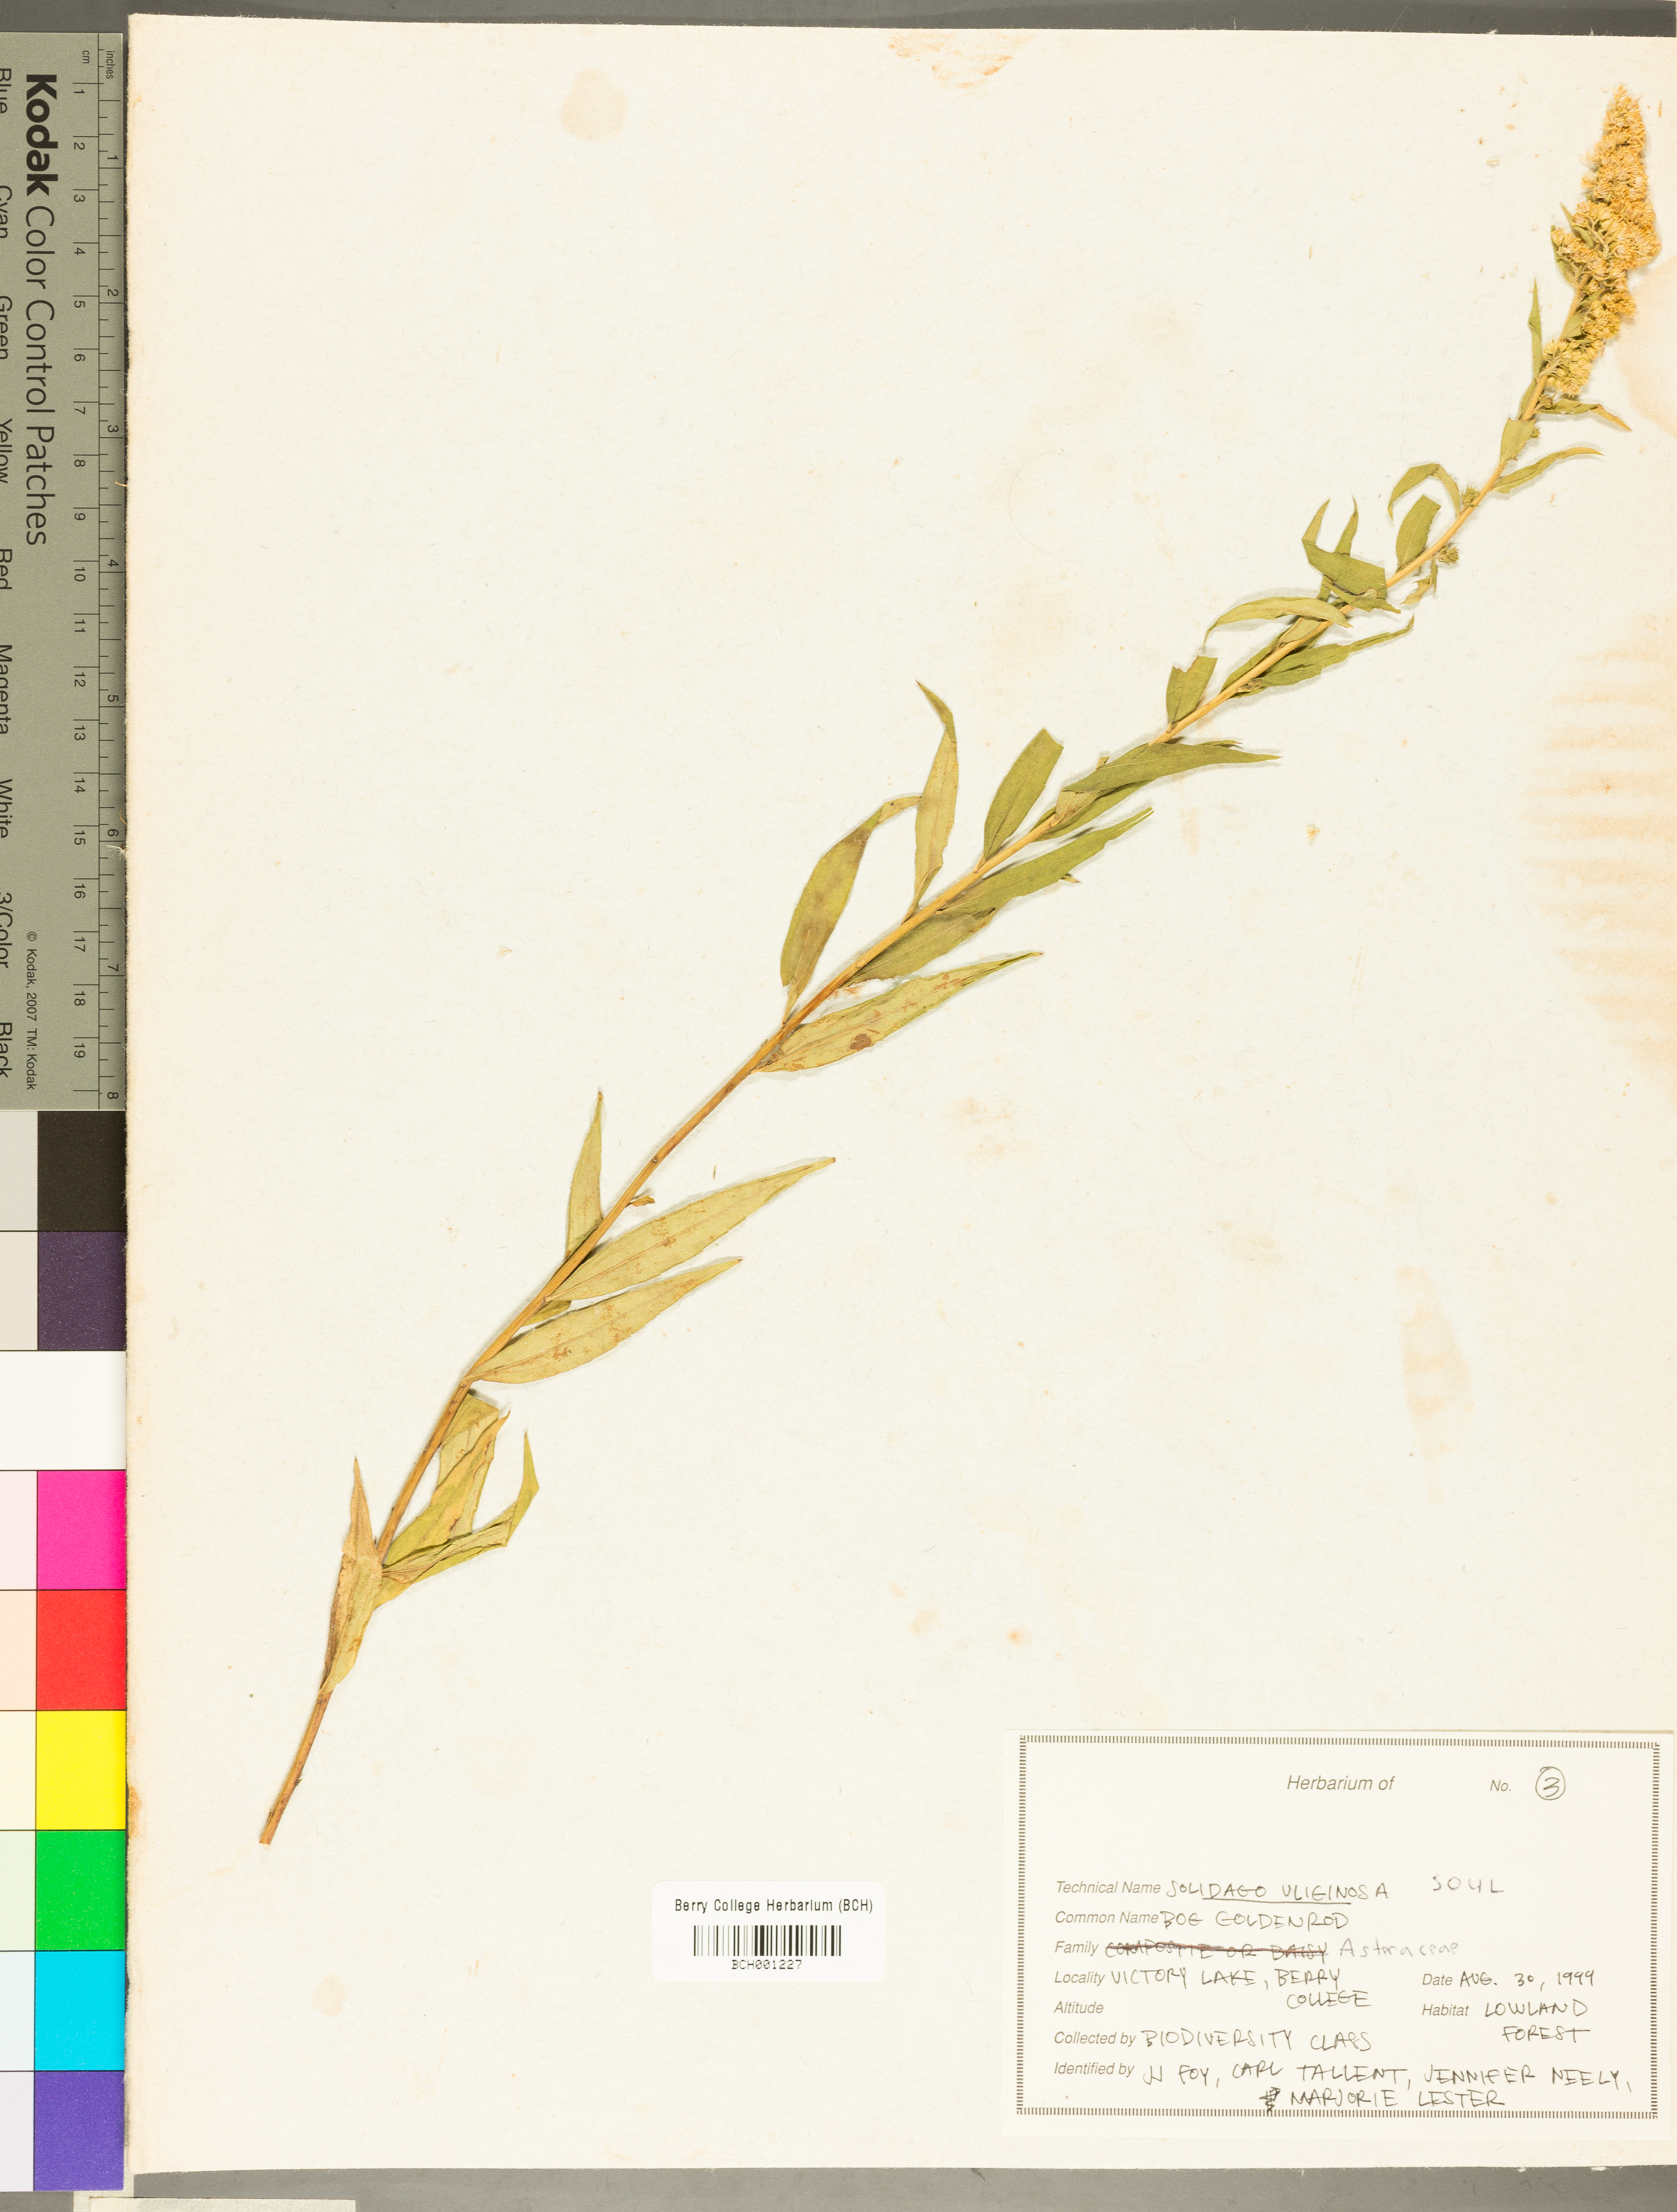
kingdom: Plantae
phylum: Tracheophyta
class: Magnoliopsida
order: Asterales
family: Asteraceae
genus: Solidago
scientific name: Solidago uliginosa
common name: Bog goldenrod
